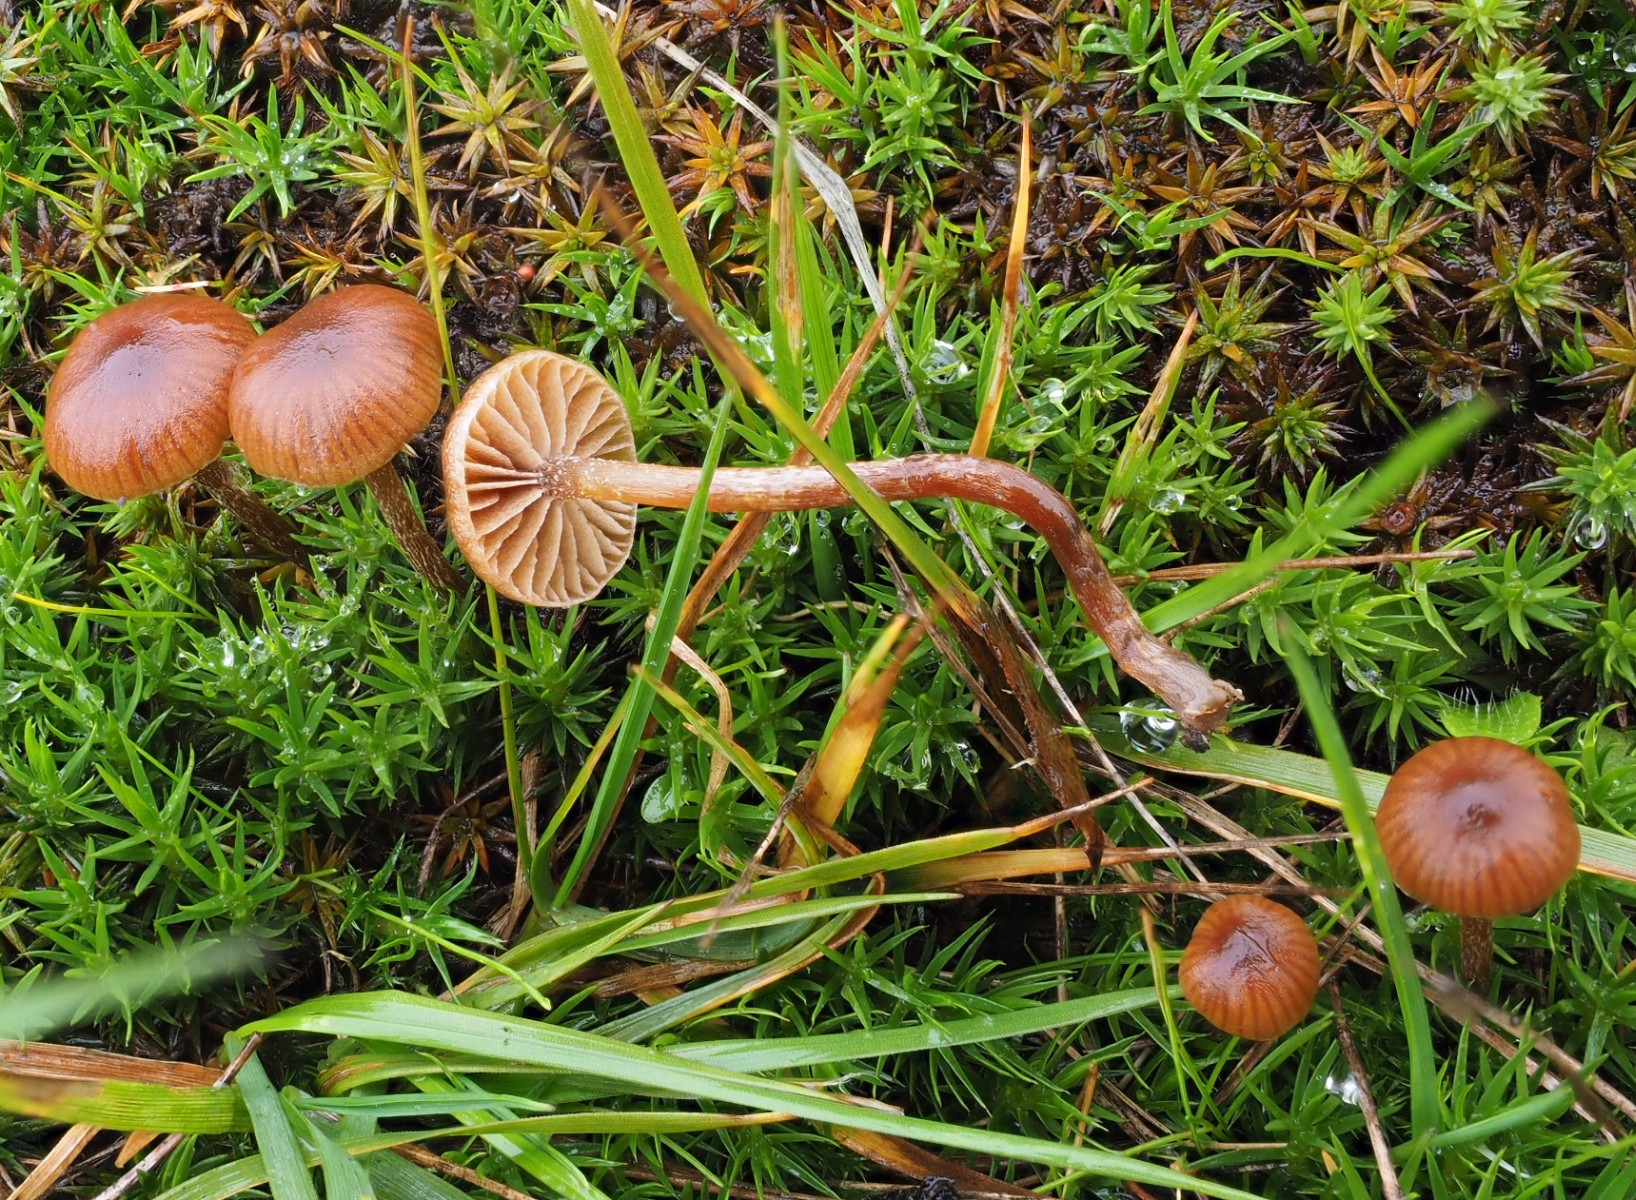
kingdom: Fungi
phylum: Basidiomycota
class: Agaricomycetes
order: Agaricales
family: Strophariaceae
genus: Deconica
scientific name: Deconica montana
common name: rødbrun stråhat
